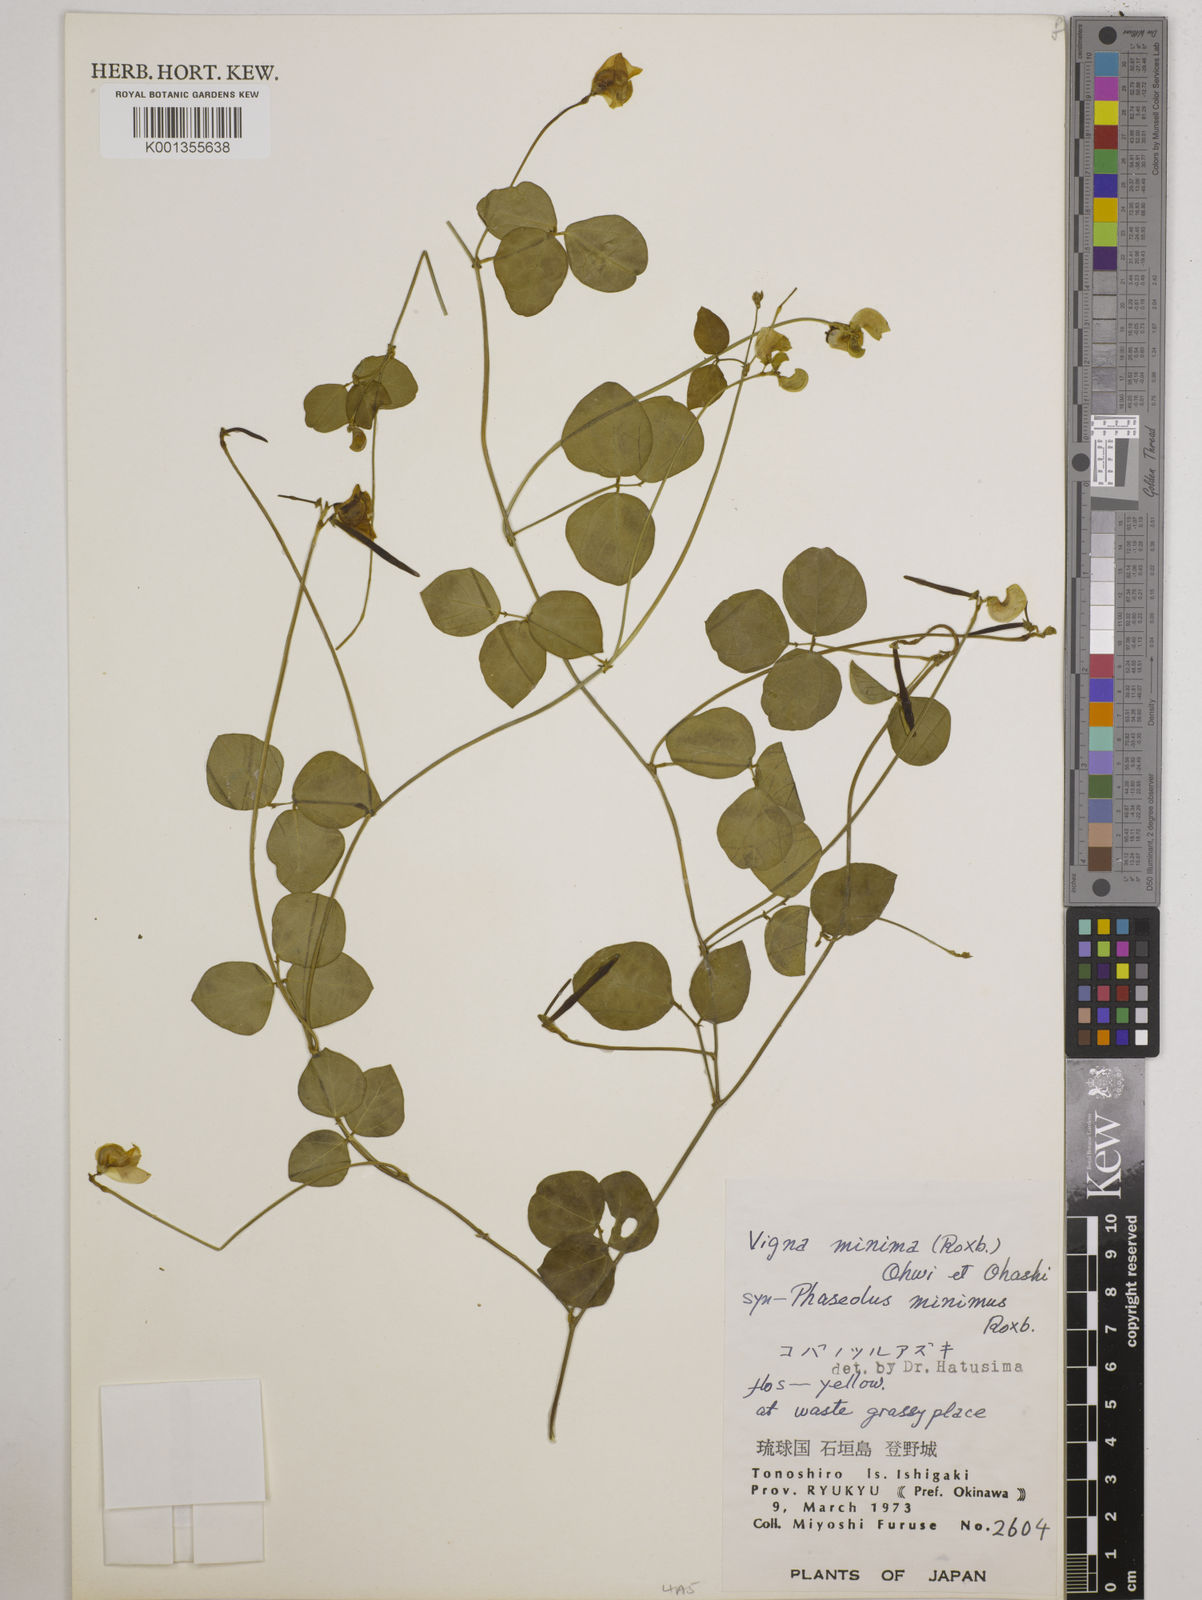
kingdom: Plantae
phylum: Tracheophyta
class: Magnoliopsida
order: Fabales
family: Fabaceae
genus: Vigna
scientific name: Vigna minima
